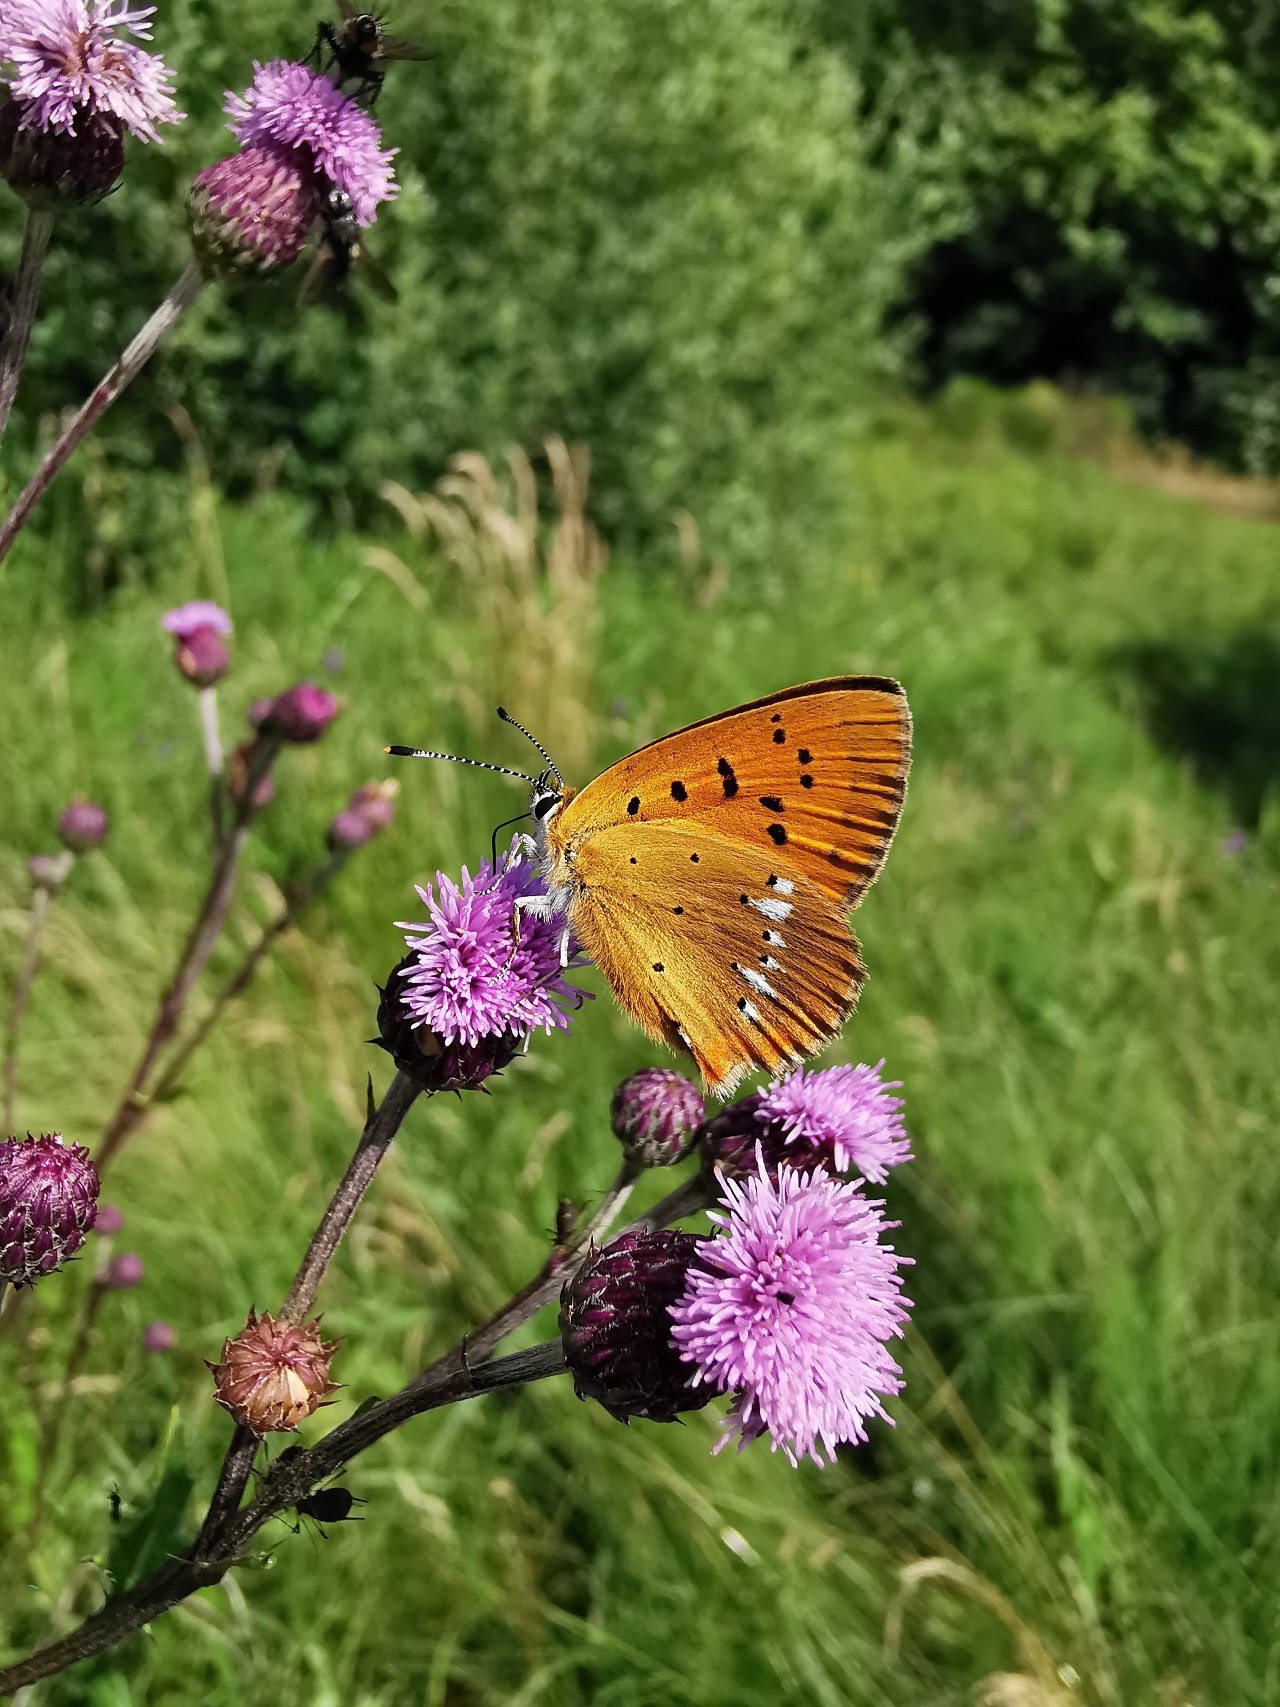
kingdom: Animalia
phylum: Arthropoda
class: Insecta
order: Lepidoptera
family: Lycaenidae
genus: Lycaena
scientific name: Lycaena virgaureae
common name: Dukatsommerfugl
